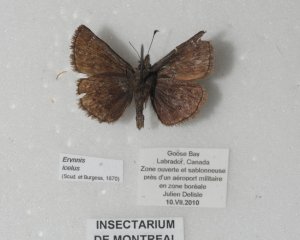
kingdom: Animalia
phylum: Arthropoda
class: Insecta
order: Lepidoptera
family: Hesperiidae
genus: Erynnis
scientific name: Erynnis icelus
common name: Dreamy Duskywing
